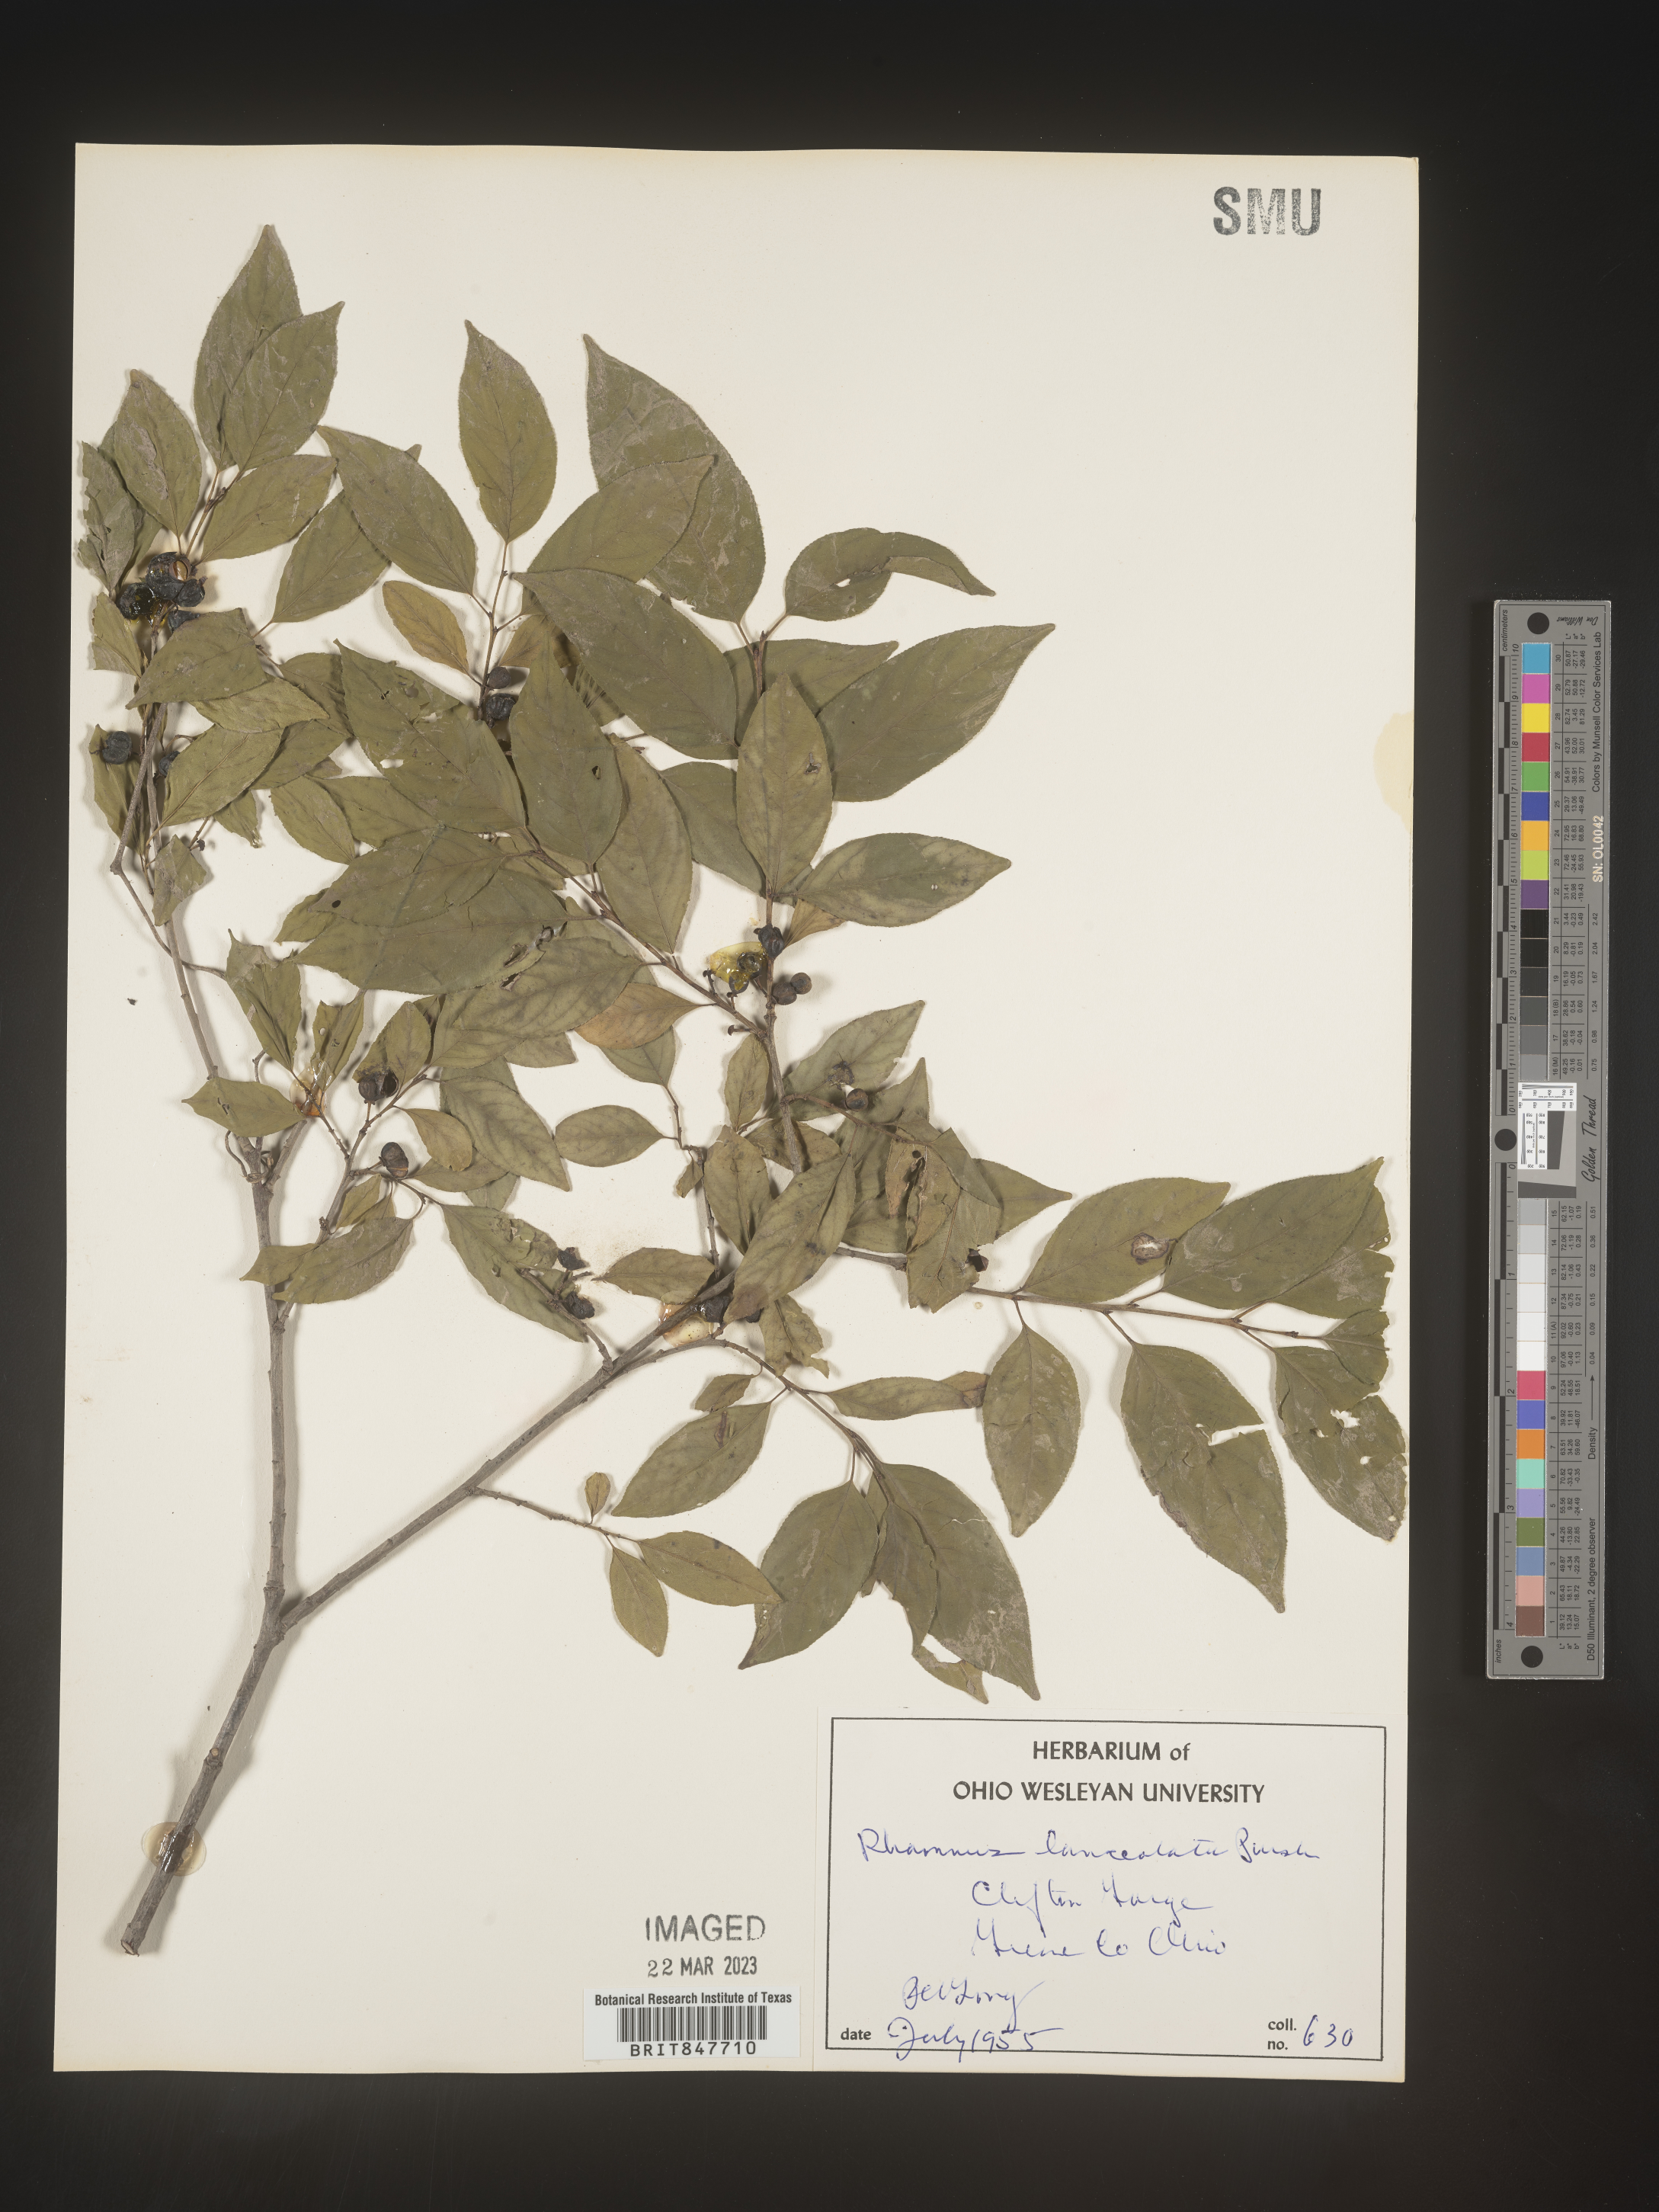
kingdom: Plantae
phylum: Tracheophyta
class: Magnoliopsida
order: Rosales
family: Rhamnaceae
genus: Endotropis
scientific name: Endotropis lanceolata
